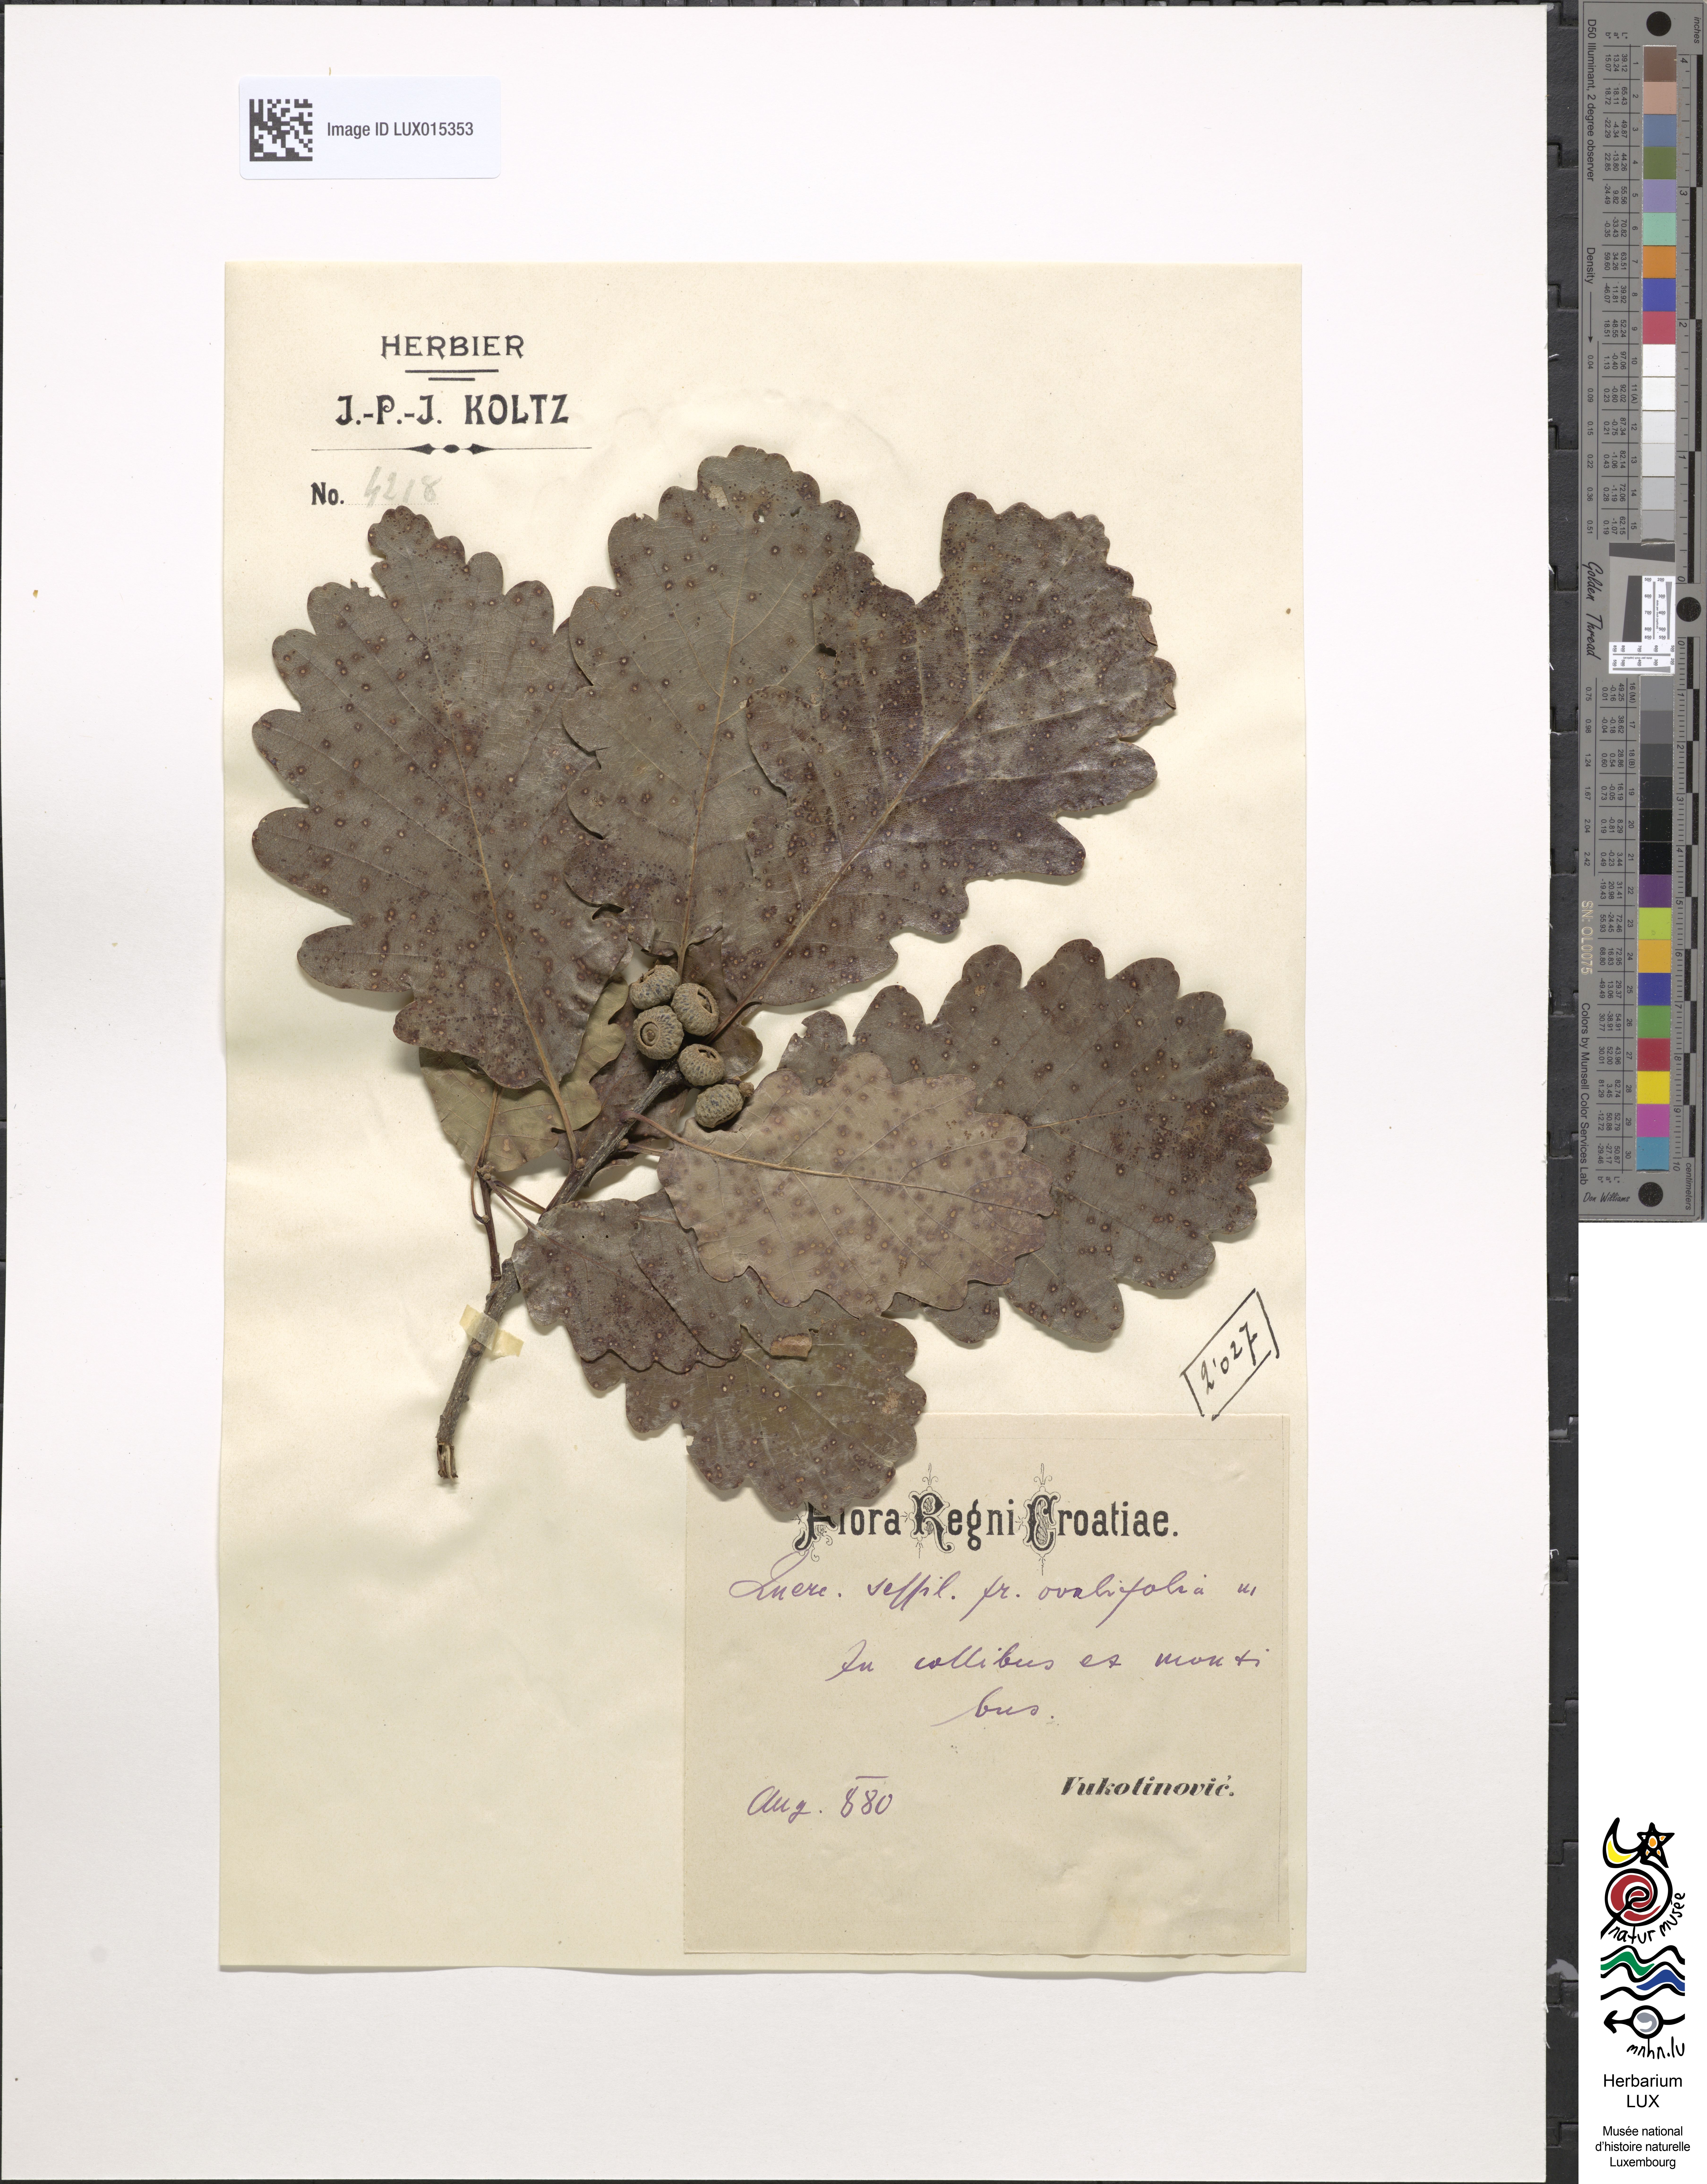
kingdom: Plantae
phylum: Tracheophyta
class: Magnoliopsida
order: Fagales
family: Fagaceae
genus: Quercus
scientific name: Quercus petraea
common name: Sessile oak
